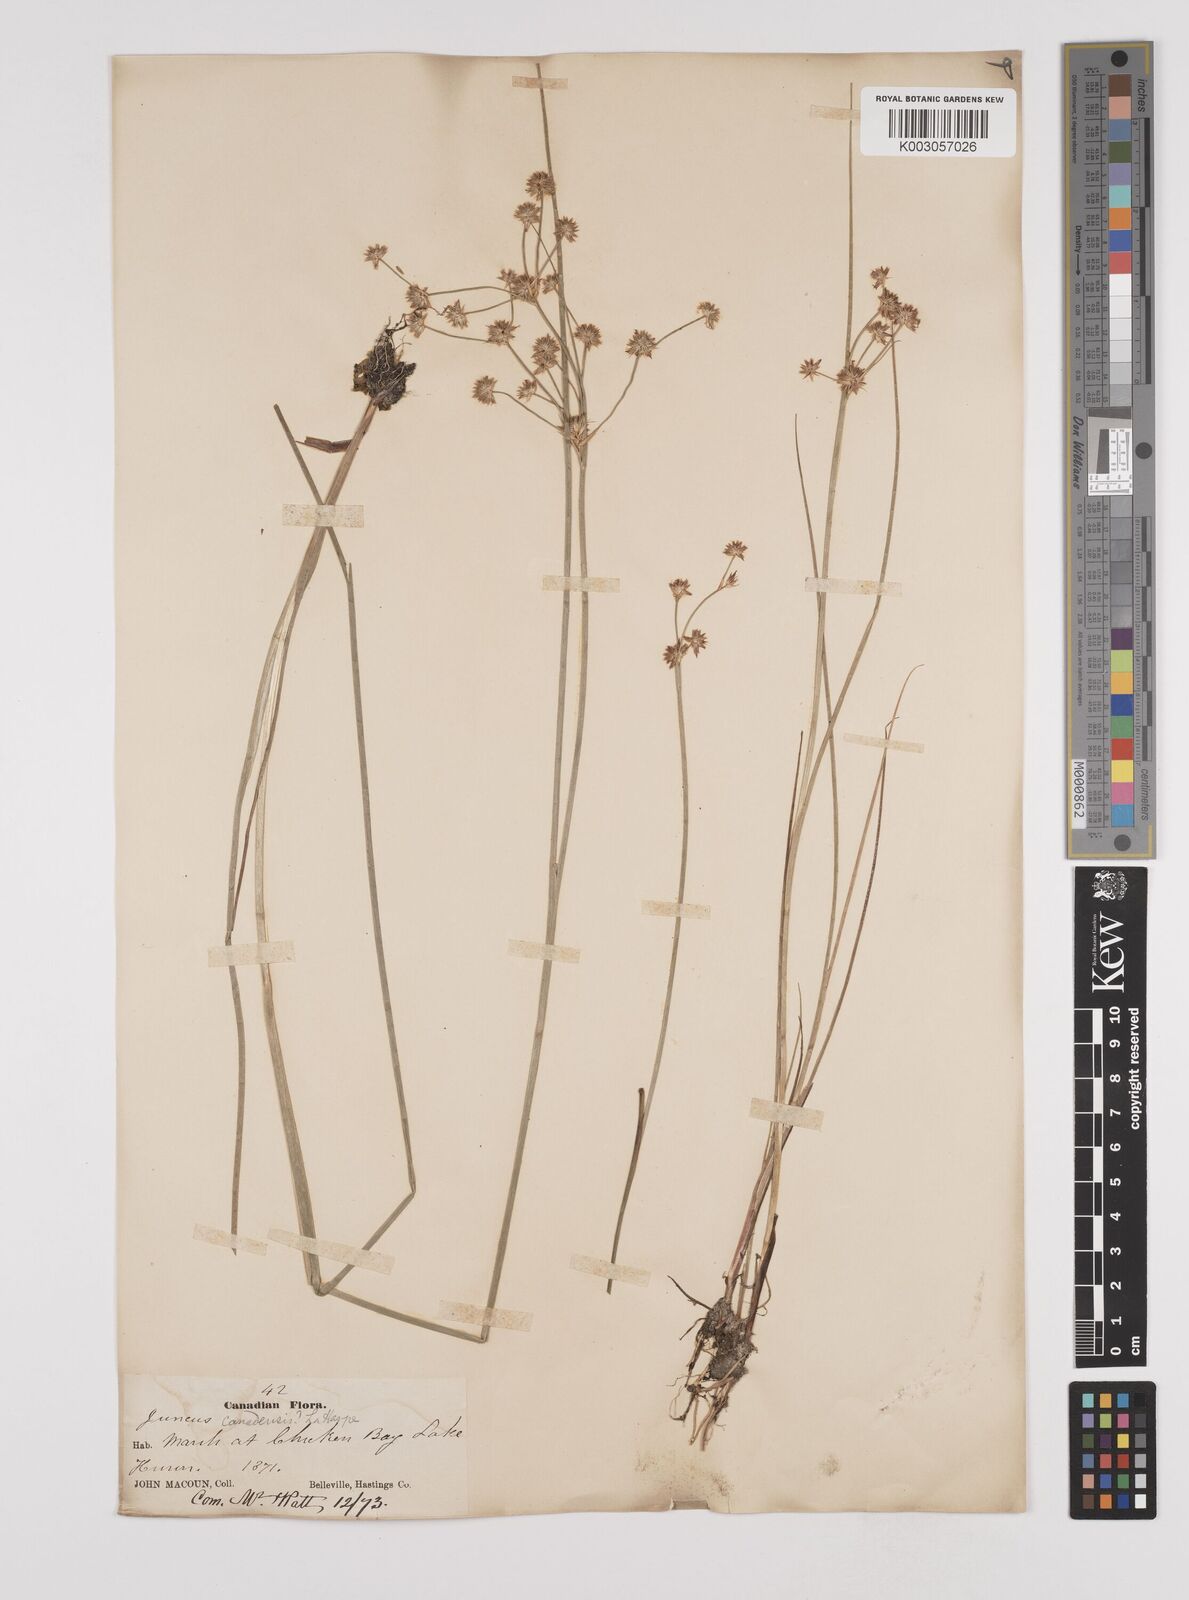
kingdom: Plantae
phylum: Tracheophyta
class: Liliopsida
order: Poales
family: Juncaceae
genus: Juncus
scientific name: Juncus canadensis
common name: Canada rush
